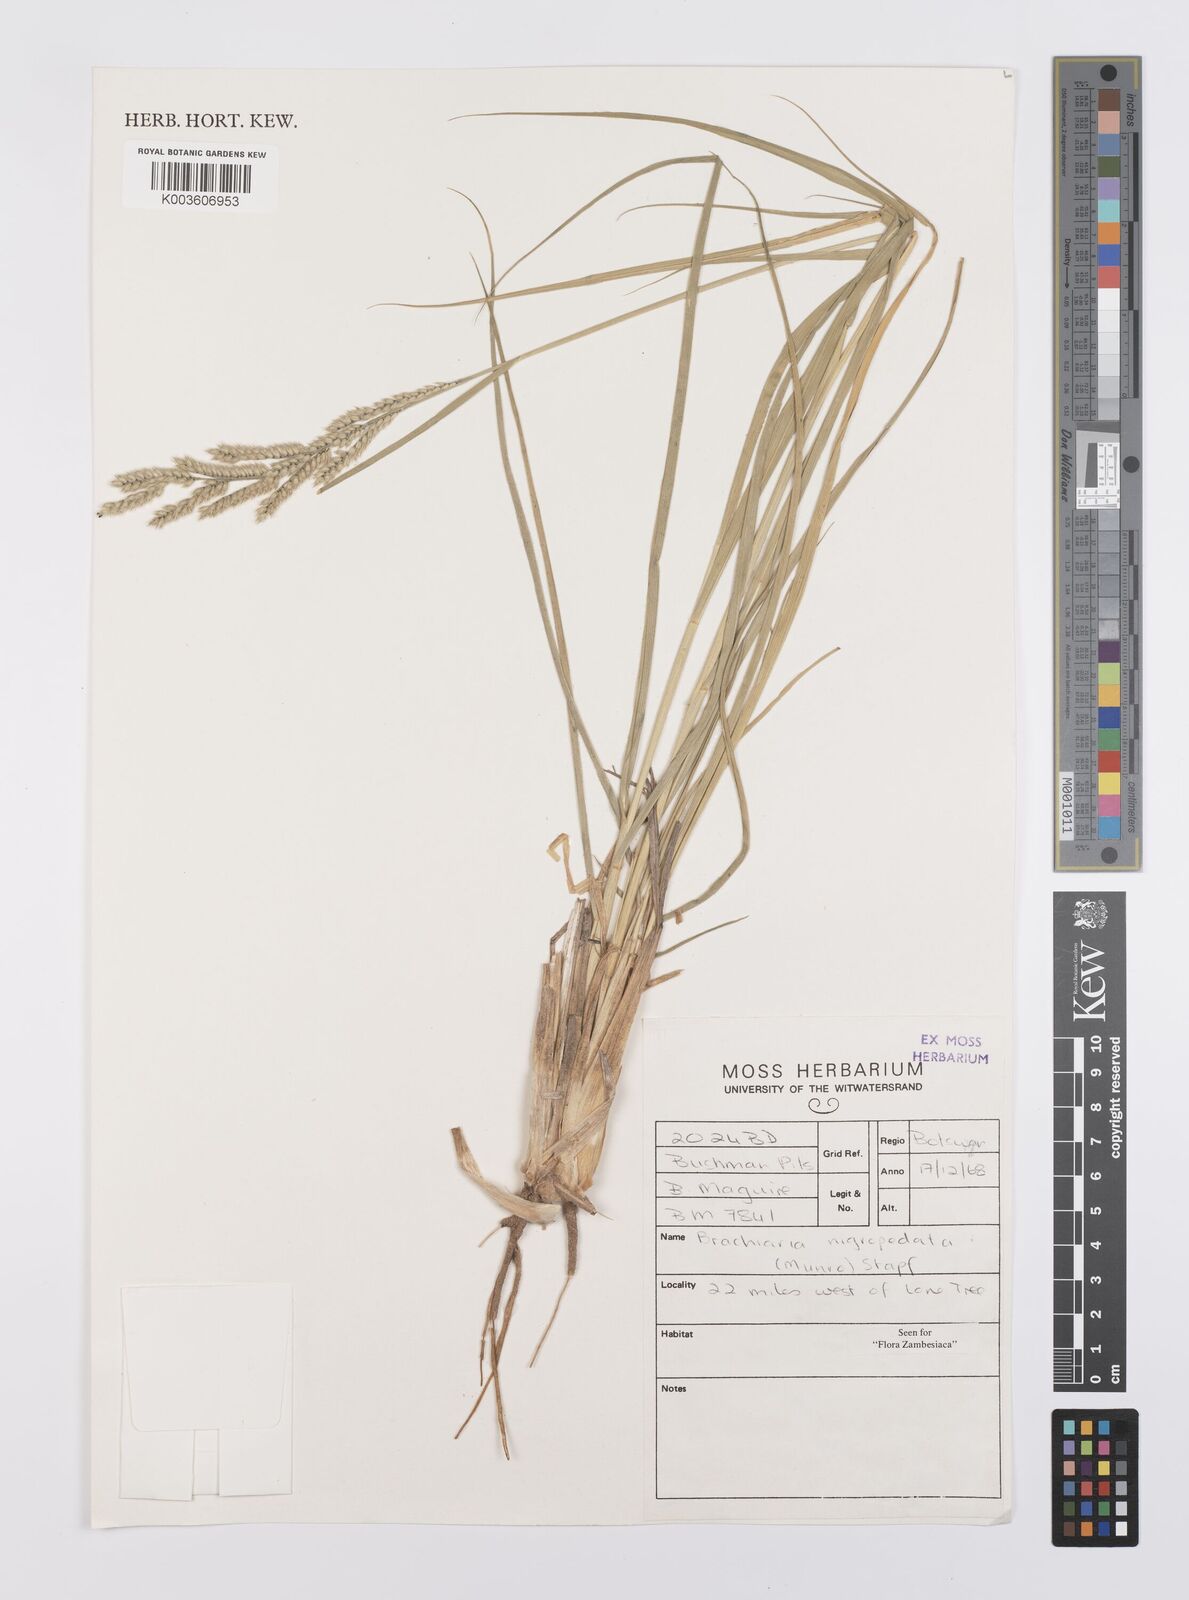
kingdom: Plantae
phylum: Tracheophyta
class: Liliopsida
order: Poales
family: Poaceae
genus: Urochloa
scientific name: Urochloa nigropedata
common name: Spotted signal grass
